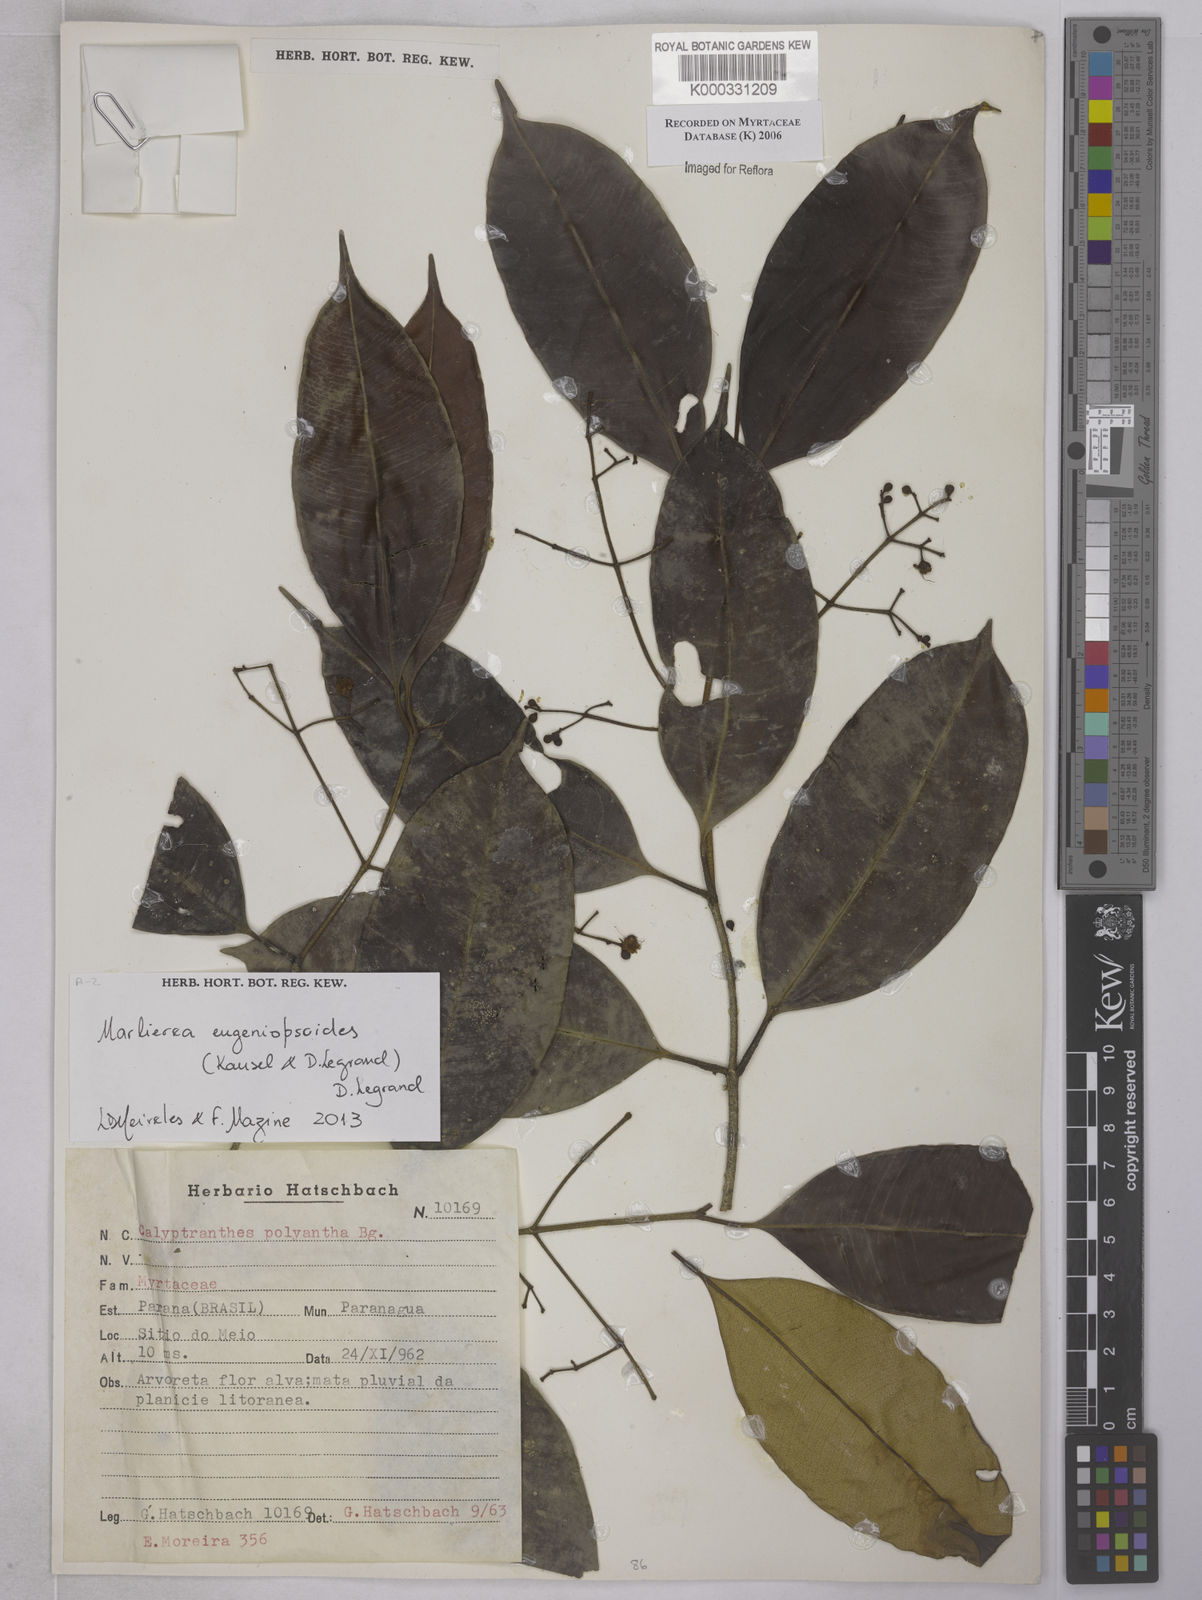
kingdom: Plantae
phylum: Tracheophyta
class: Magnoliopsida
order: Myrtales
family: Myrtaceae
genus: Myrcia
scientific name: Myrcia eugeniopsoides
